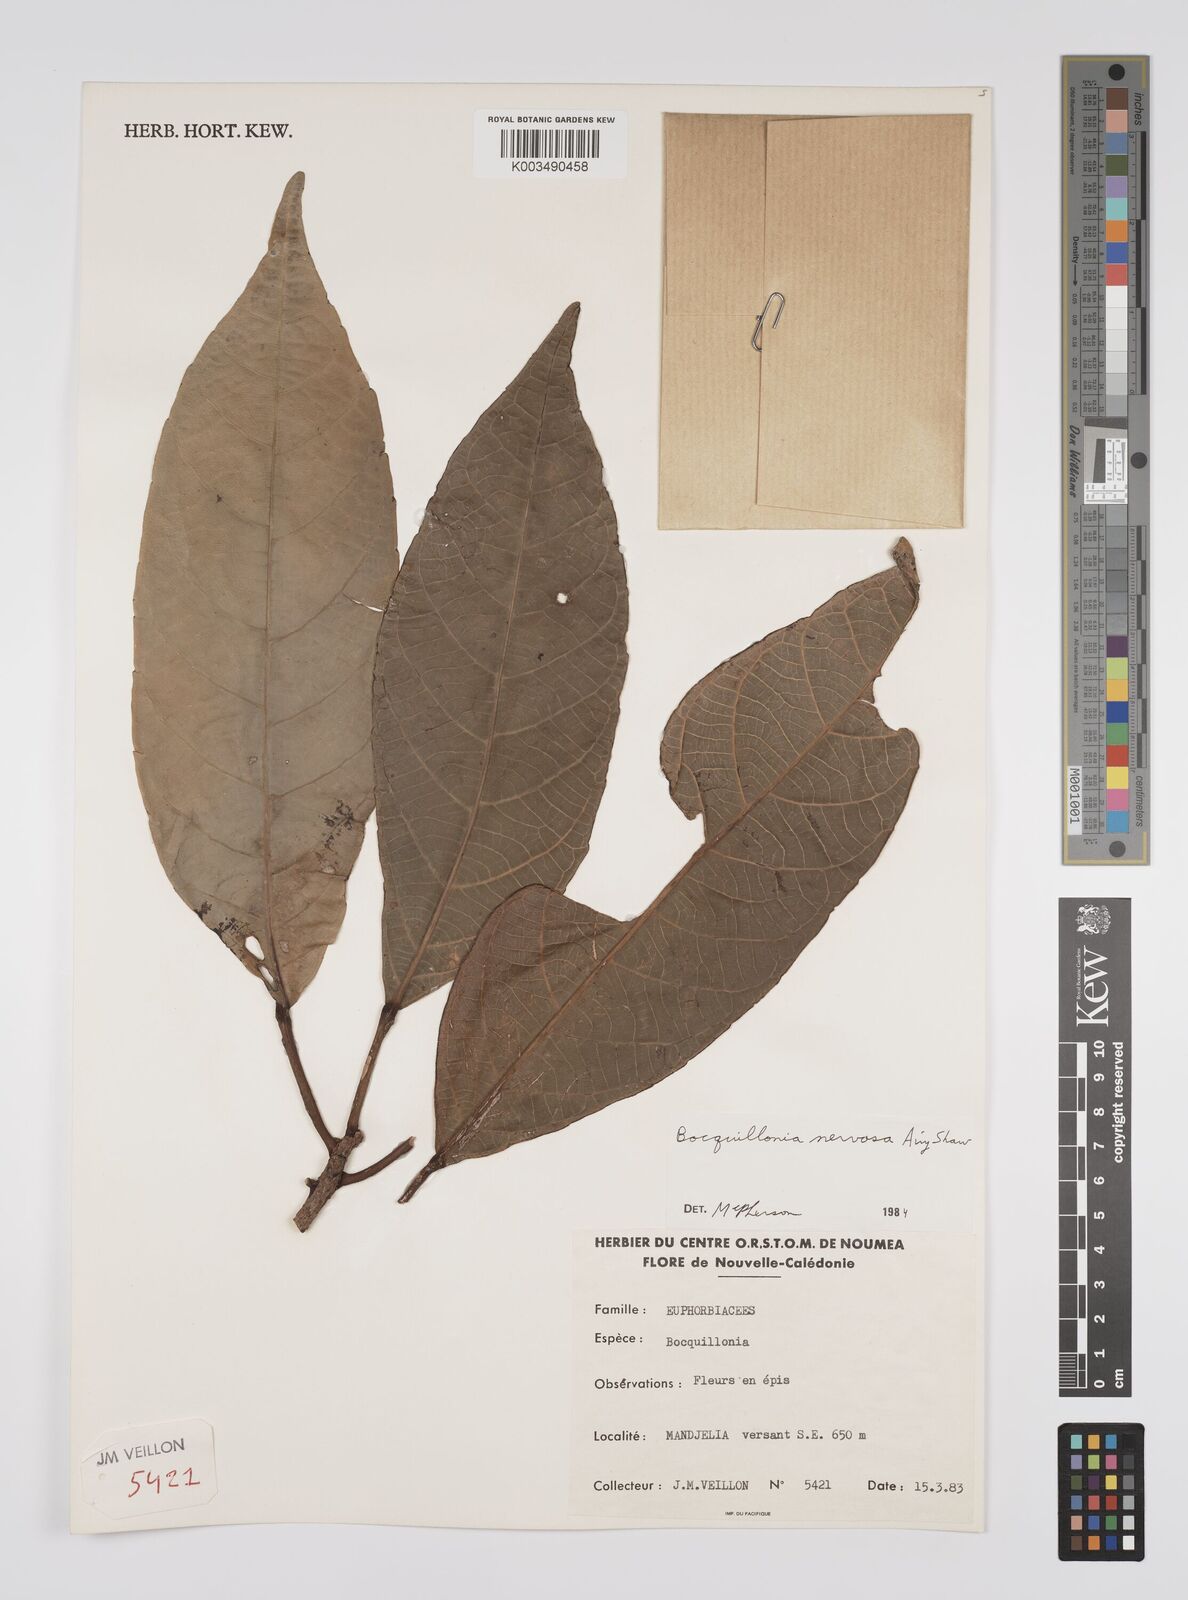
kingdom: Plantae
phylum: Tracheophyta
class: Magnoliopsida
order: Malpighiales
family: Euphorbiaceae
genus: Bocquillonia
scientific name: Bocquillonia nervosa
